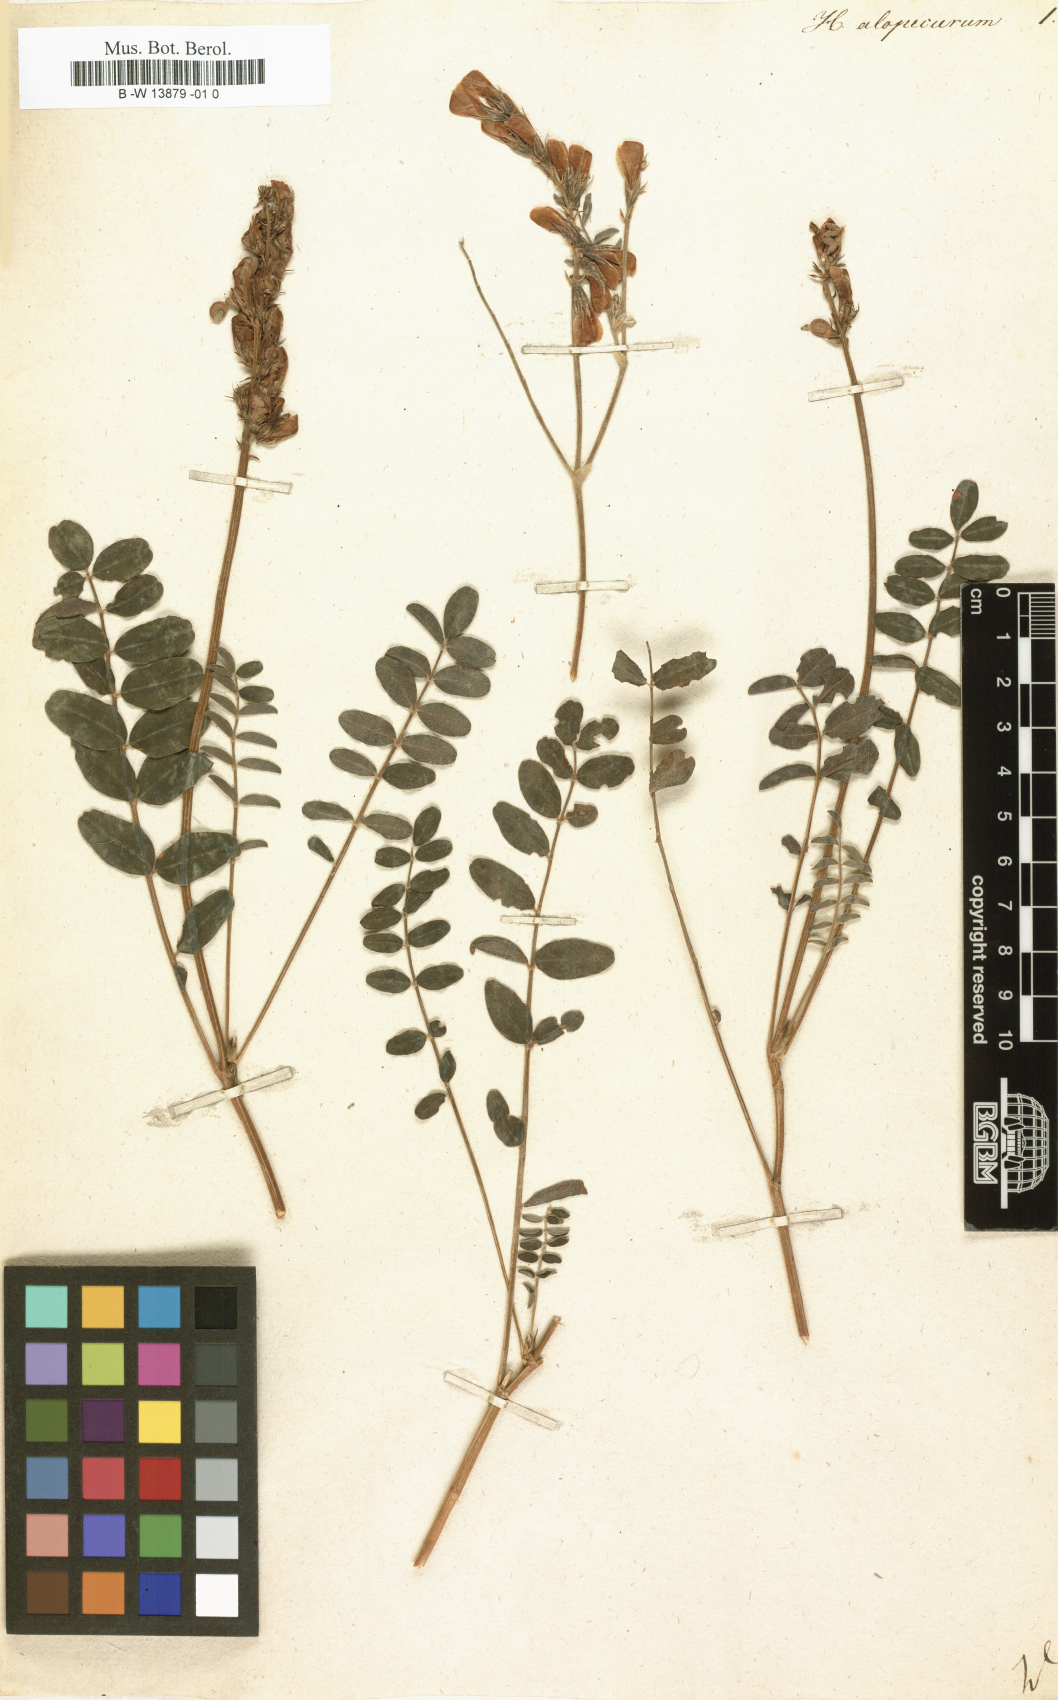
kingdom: Plantae
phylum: Tracheophyta
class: Magnoliopsida
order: Fabales
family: Fabaceae
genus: Hedysarum
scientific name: Hedysarum
